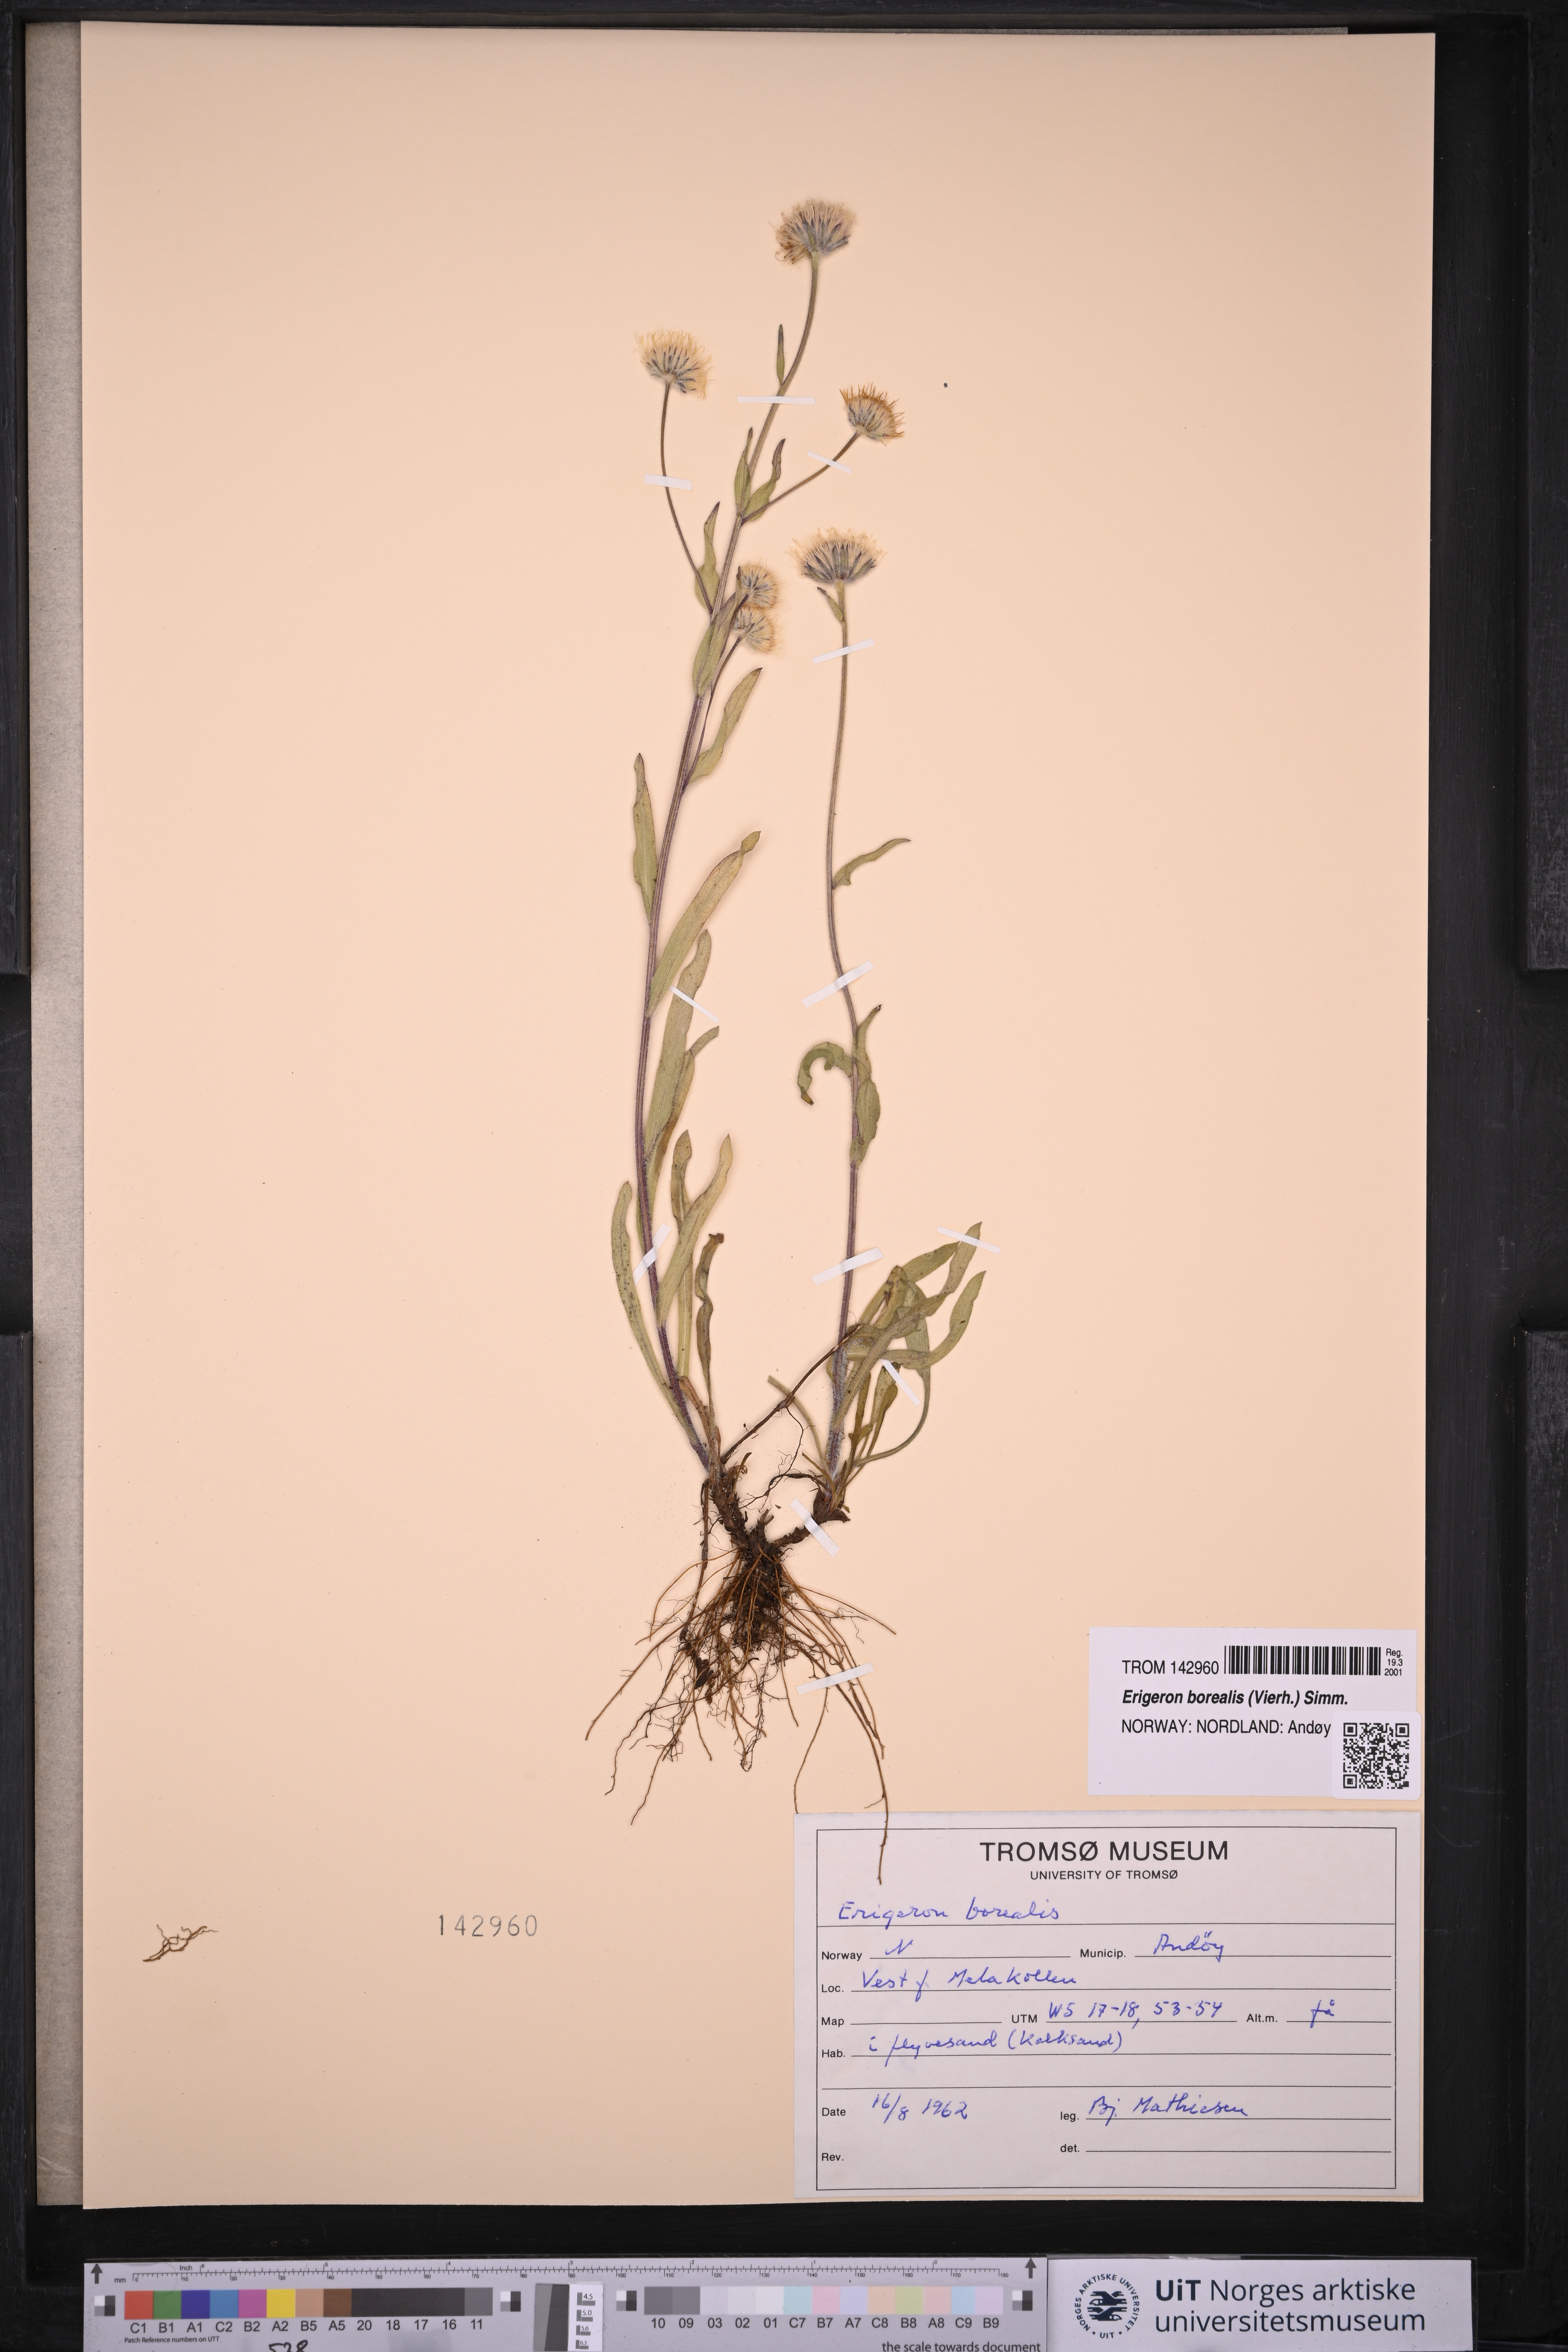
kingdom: Plantae
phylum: Tracheophyta
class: Magnoliopsida
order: Asterales
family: Asteraceae
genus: Erigeron
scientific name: Erigeron borealis
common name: Alpine fleabane
